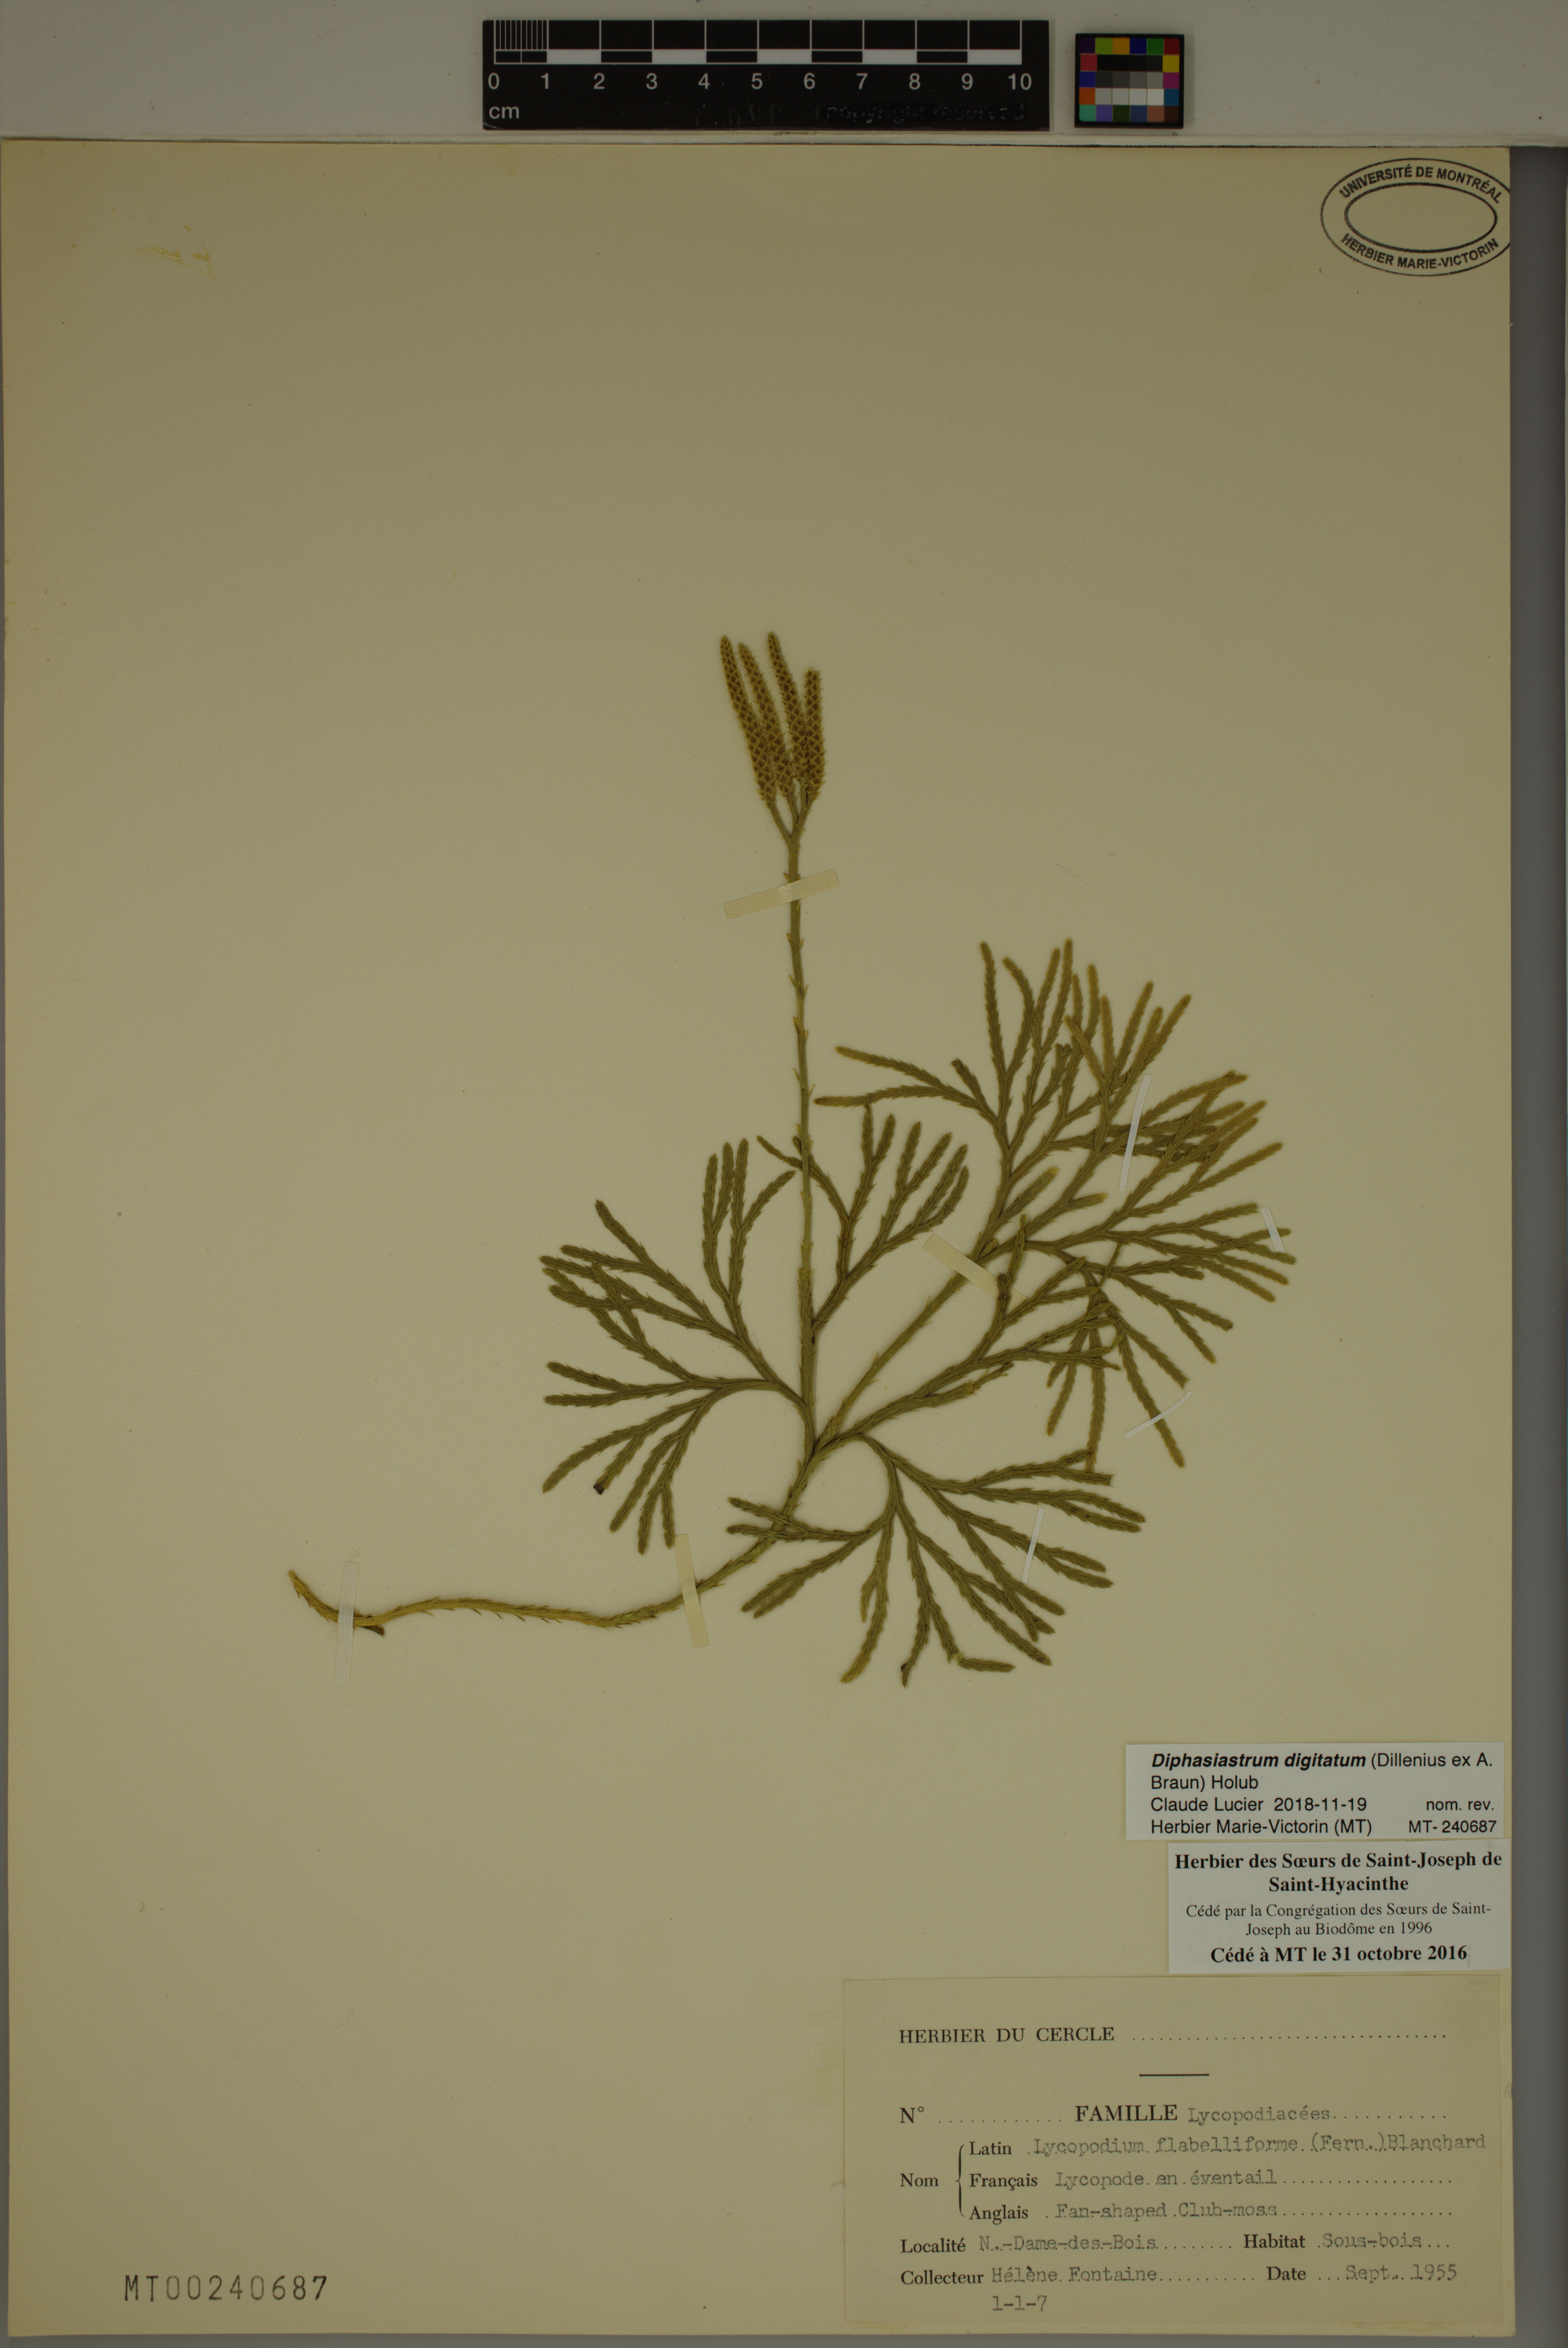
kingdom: Plantae
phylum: Tracheophyta
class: Lycopodiopsida
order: Lycopodiales
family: Lycopodiaceae
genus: Diphasiastrum
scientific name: Diphasiastrum digitatum
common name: Southern running-pine
